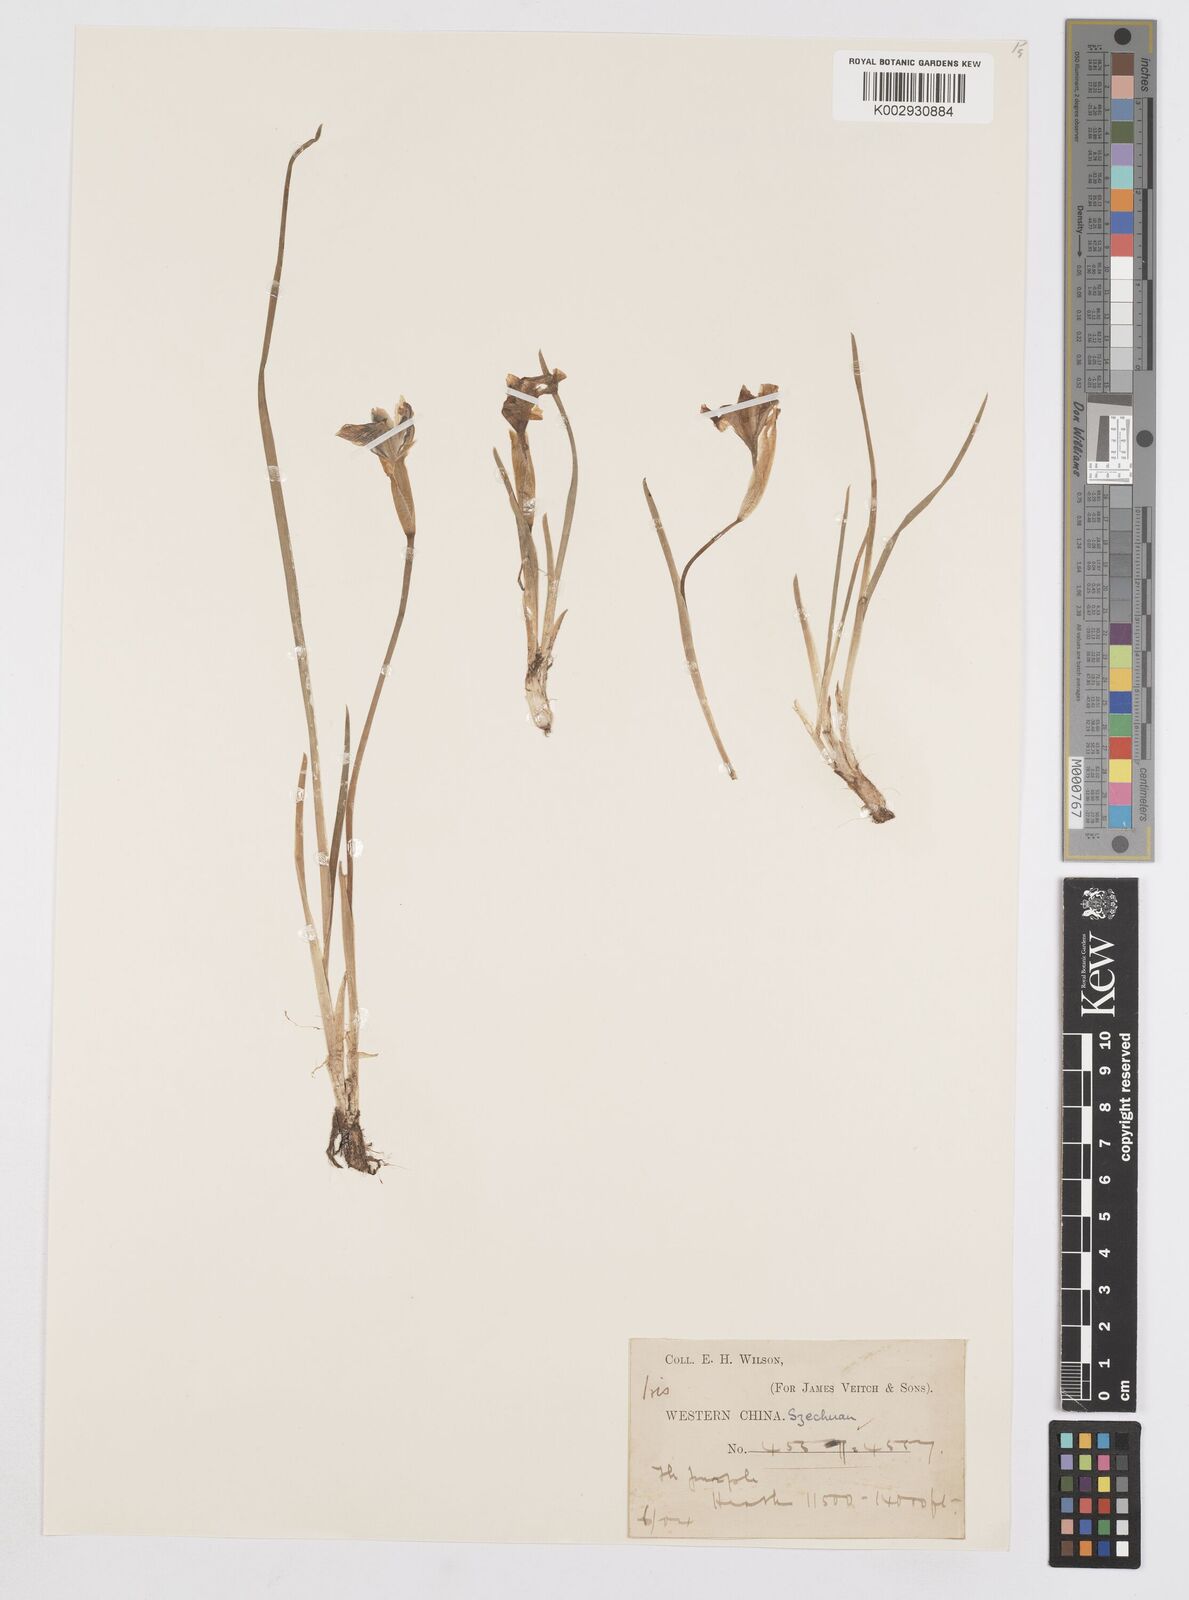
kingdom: Plantae
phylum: Tracheophyta
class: Liliopsida
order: Asparagales
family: Iridaceae
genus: Iris
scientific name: Iris goniocarpa
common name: Angular-fruit iris
